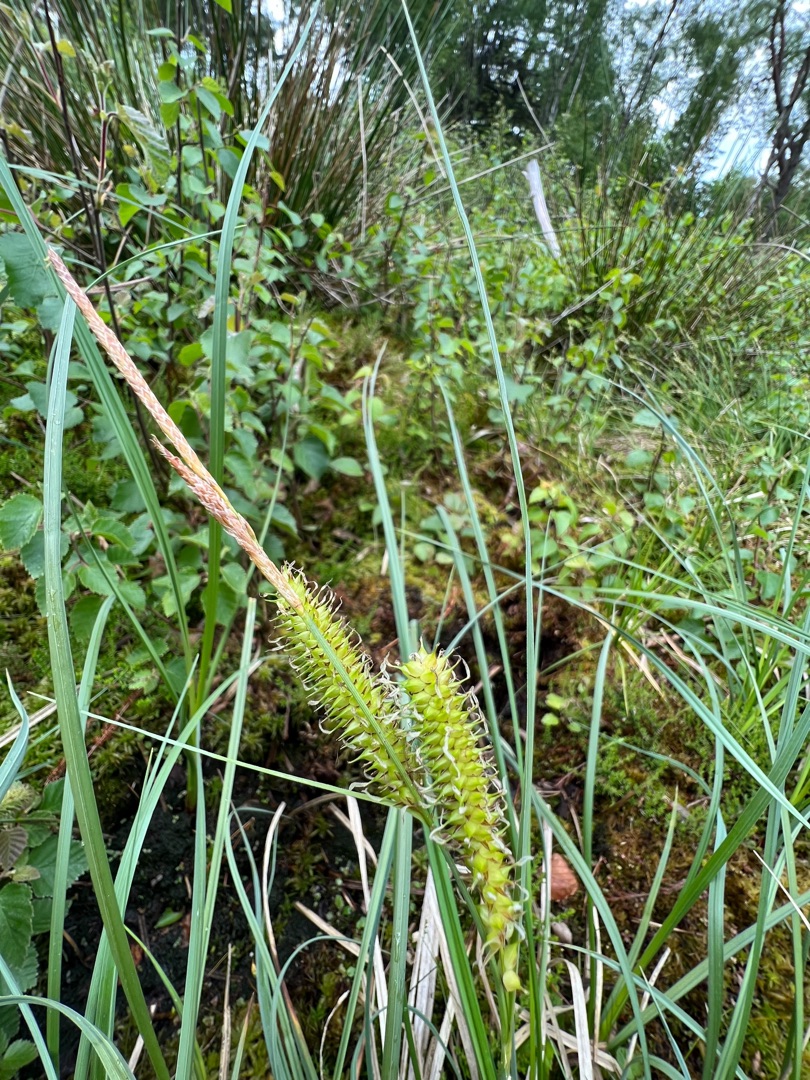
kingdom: Plantae
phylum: Tracheophyta
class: Liliopsida
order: Poales
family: Cyperaceae
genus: Carex
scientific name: Carex rostrata
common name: Næb-star
